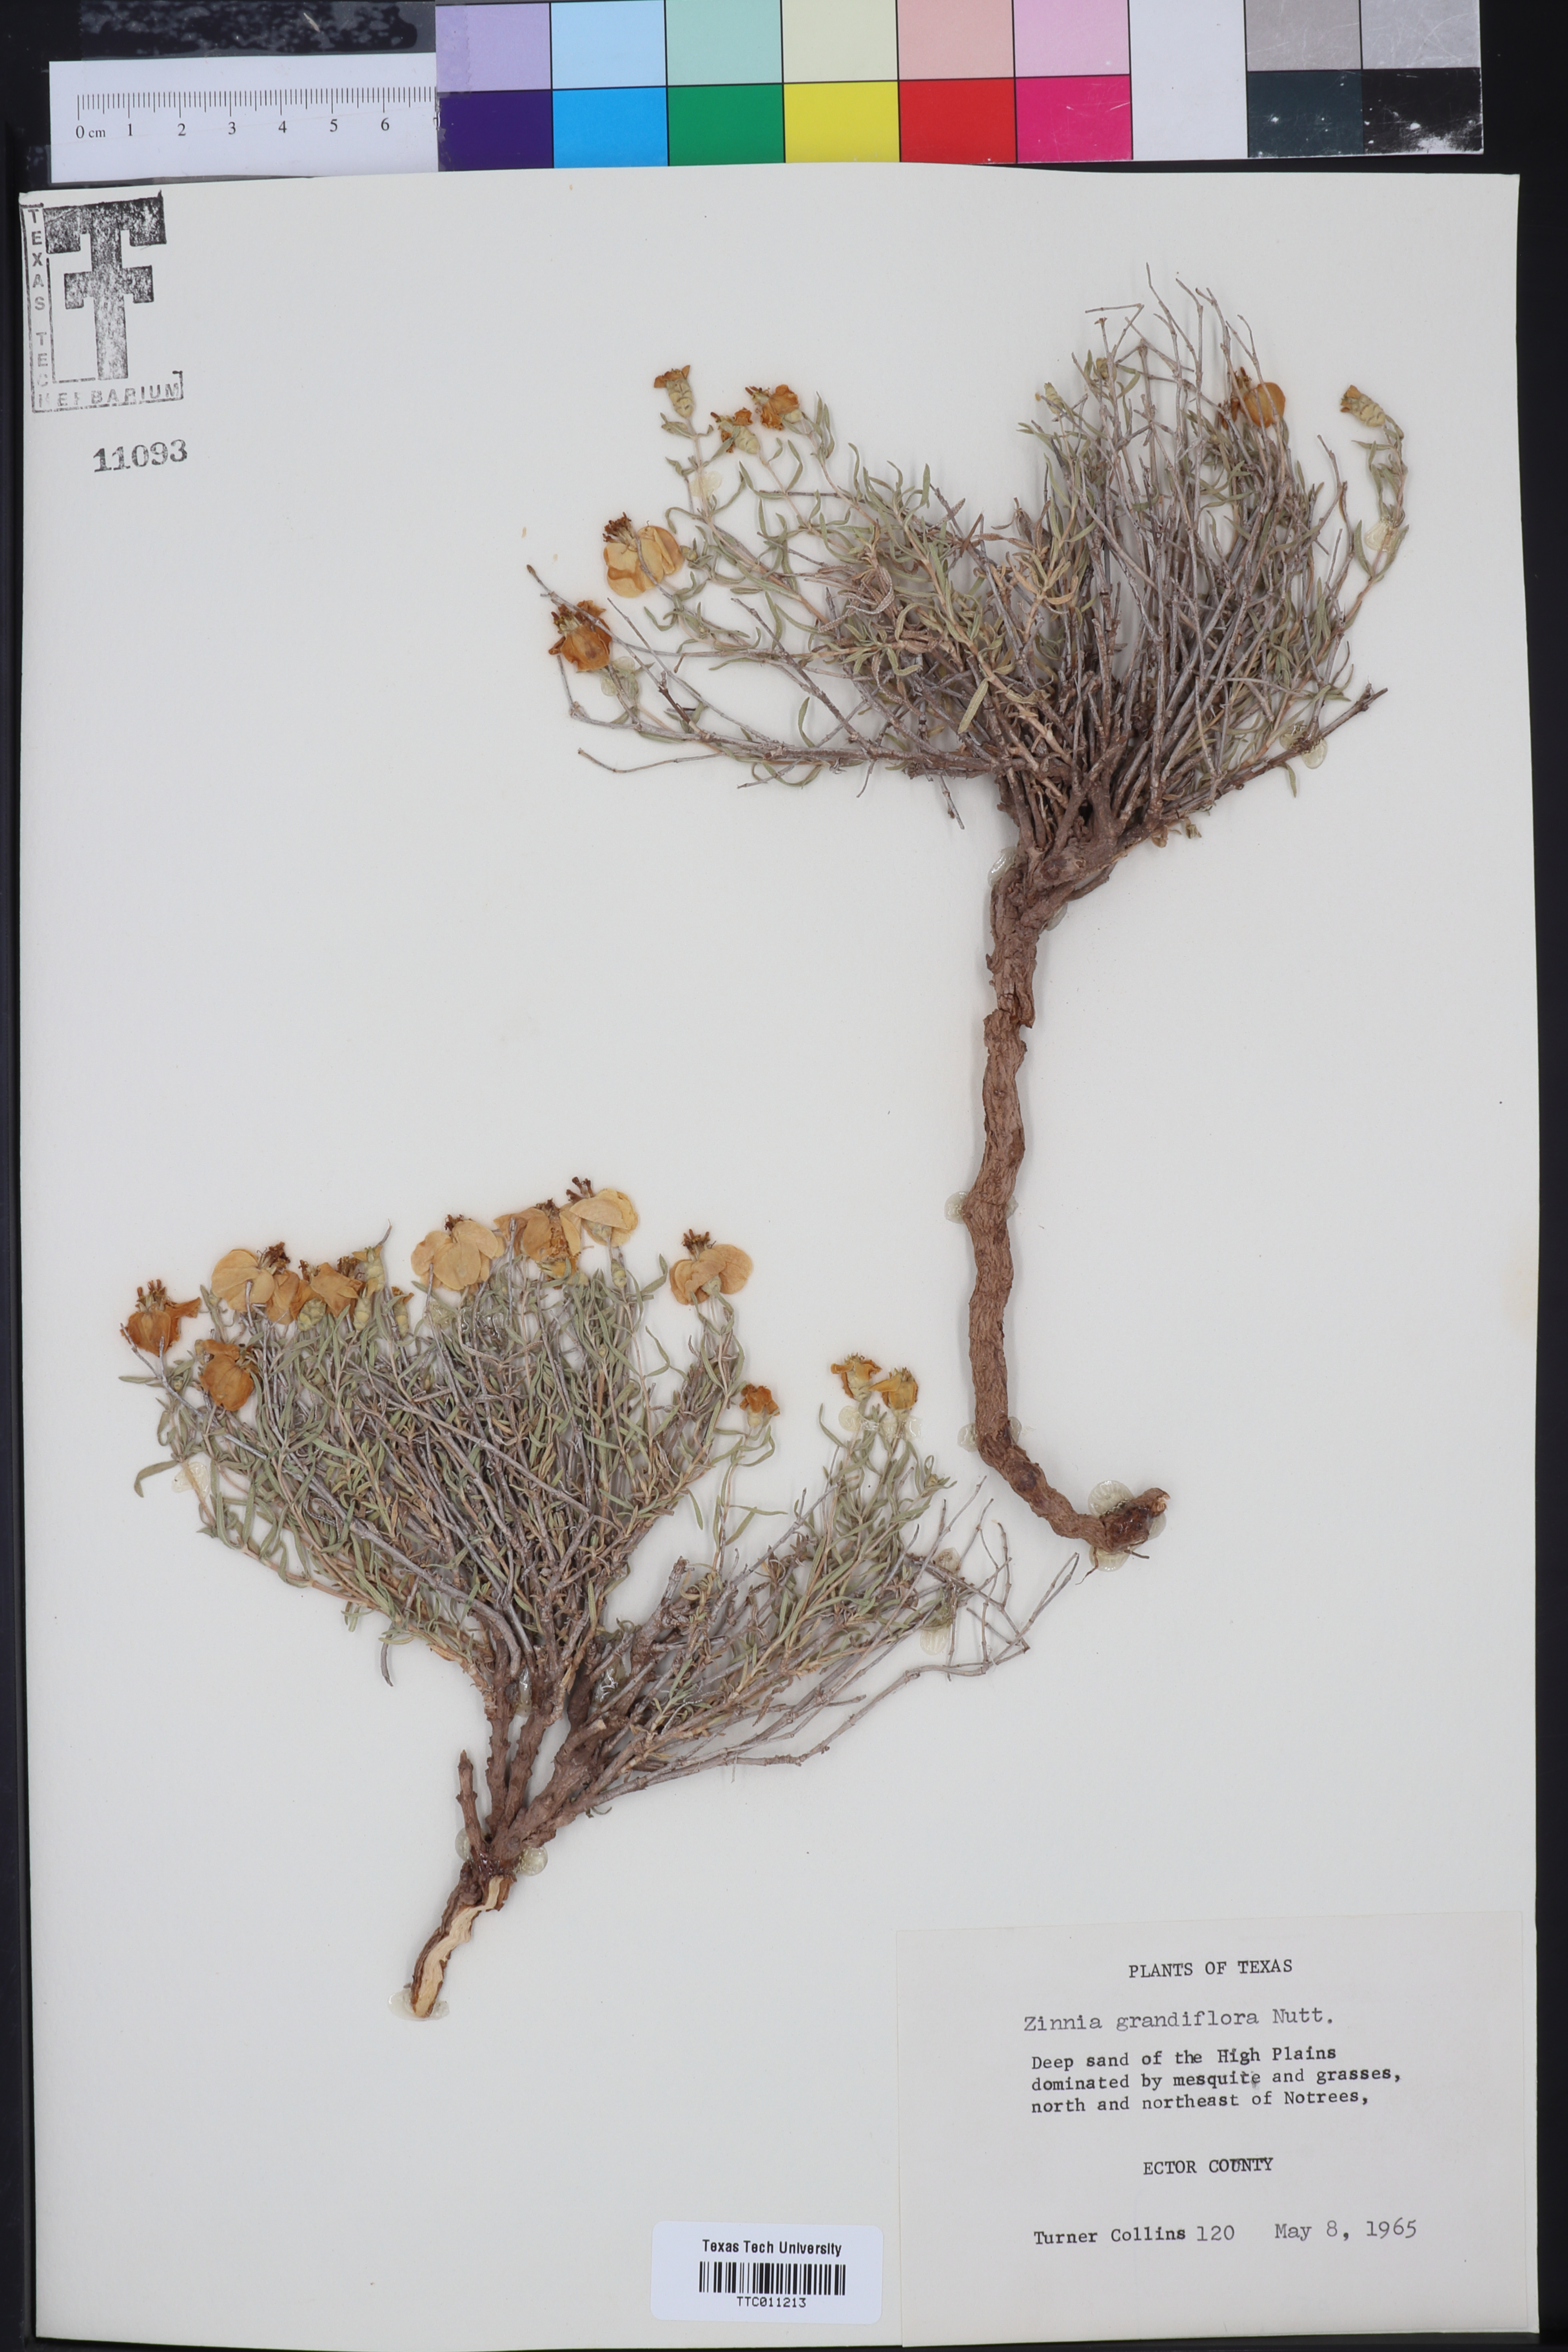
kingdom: Plantae
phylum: Tracheophyta
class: Magnoliopsida
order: Asterales
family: Asteraceae
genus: Zinnia
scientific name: Zinnia grandiflora
